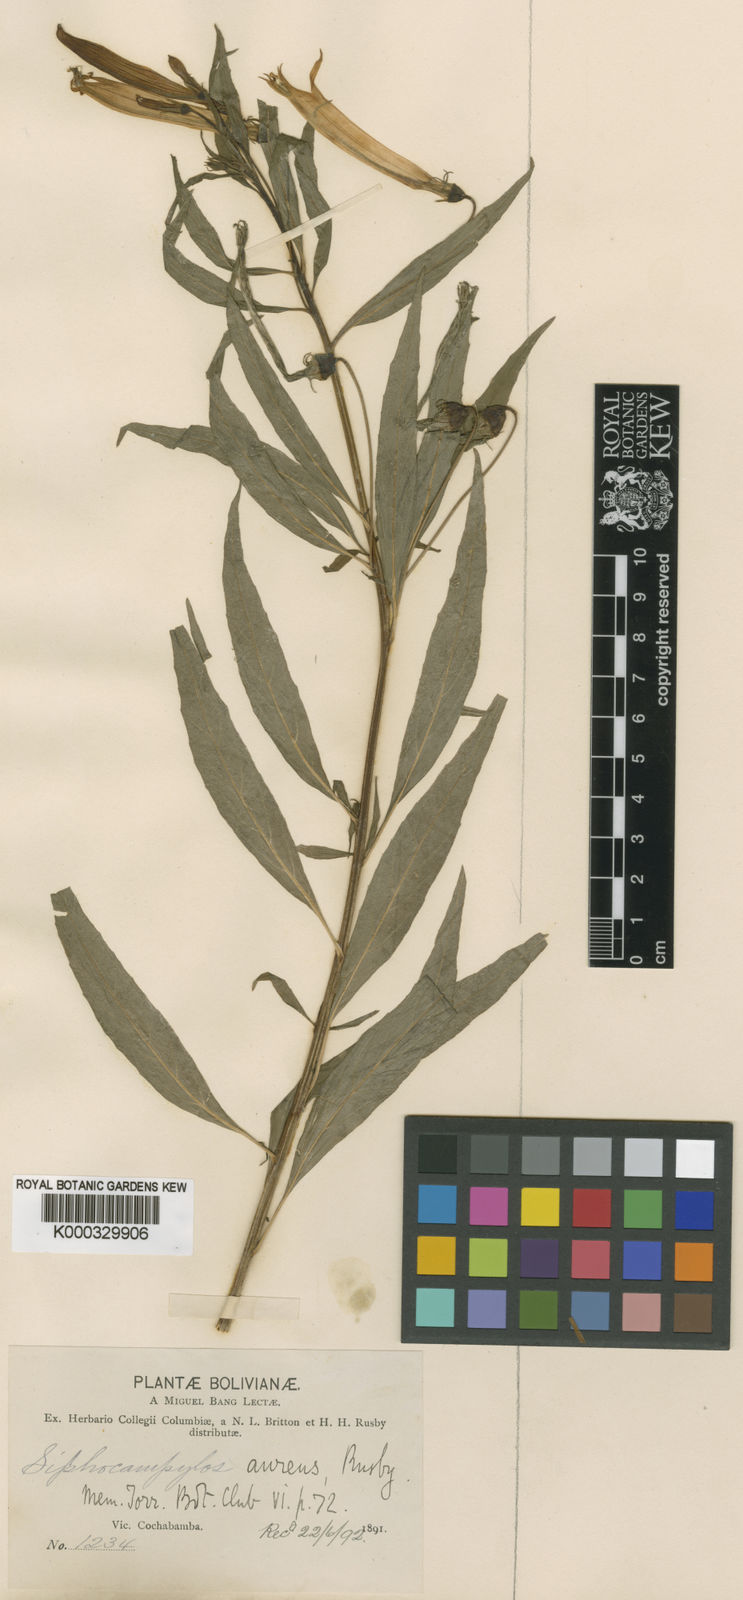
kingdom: Plantae
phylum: Tracheophyta
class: Magnoliopsida
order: Asterales
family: Campanulaceae
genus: Siphocampylus
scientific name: Siphocampylus aureus
